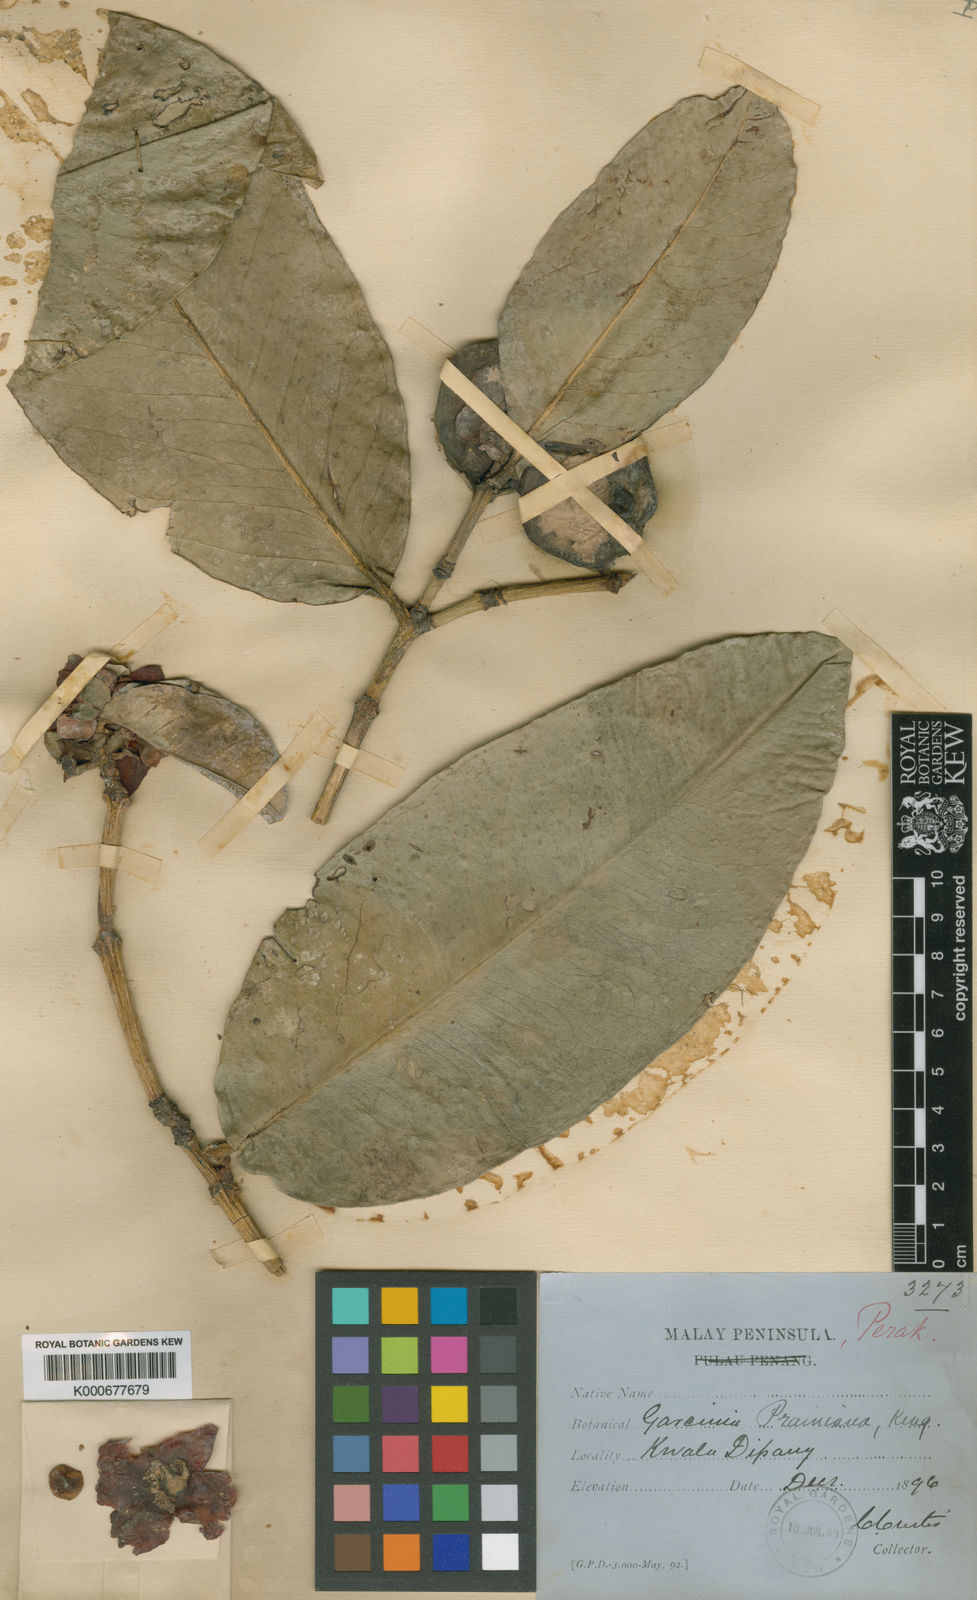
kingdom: Plantae
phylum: Tracheophyta
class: Magnoliopsida
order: Malpighiales
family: Clusiaceae
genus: Garcinia
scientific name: Garcinia prainiana
